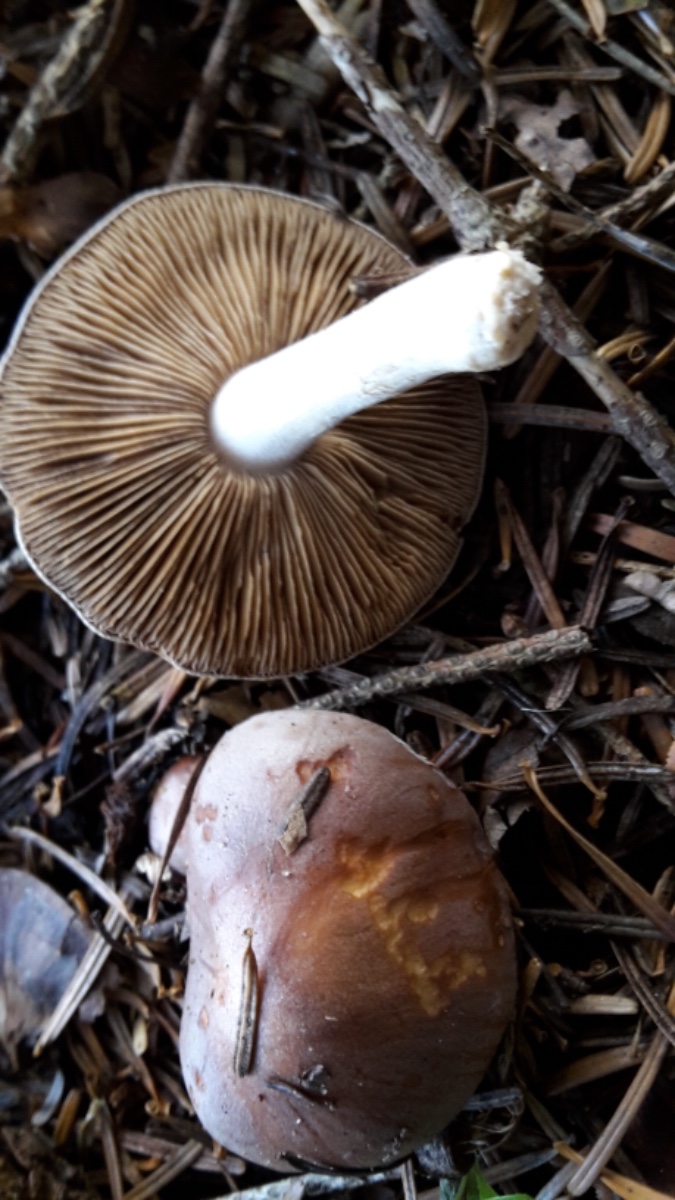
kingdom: Fungi
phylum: Basidiomycota
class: Agaricomycetes
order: Agaricales
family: Hymenogastraceae
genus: Hebeloma
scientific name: Hebeloma theobrominum
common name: rødbrun tåreblad
